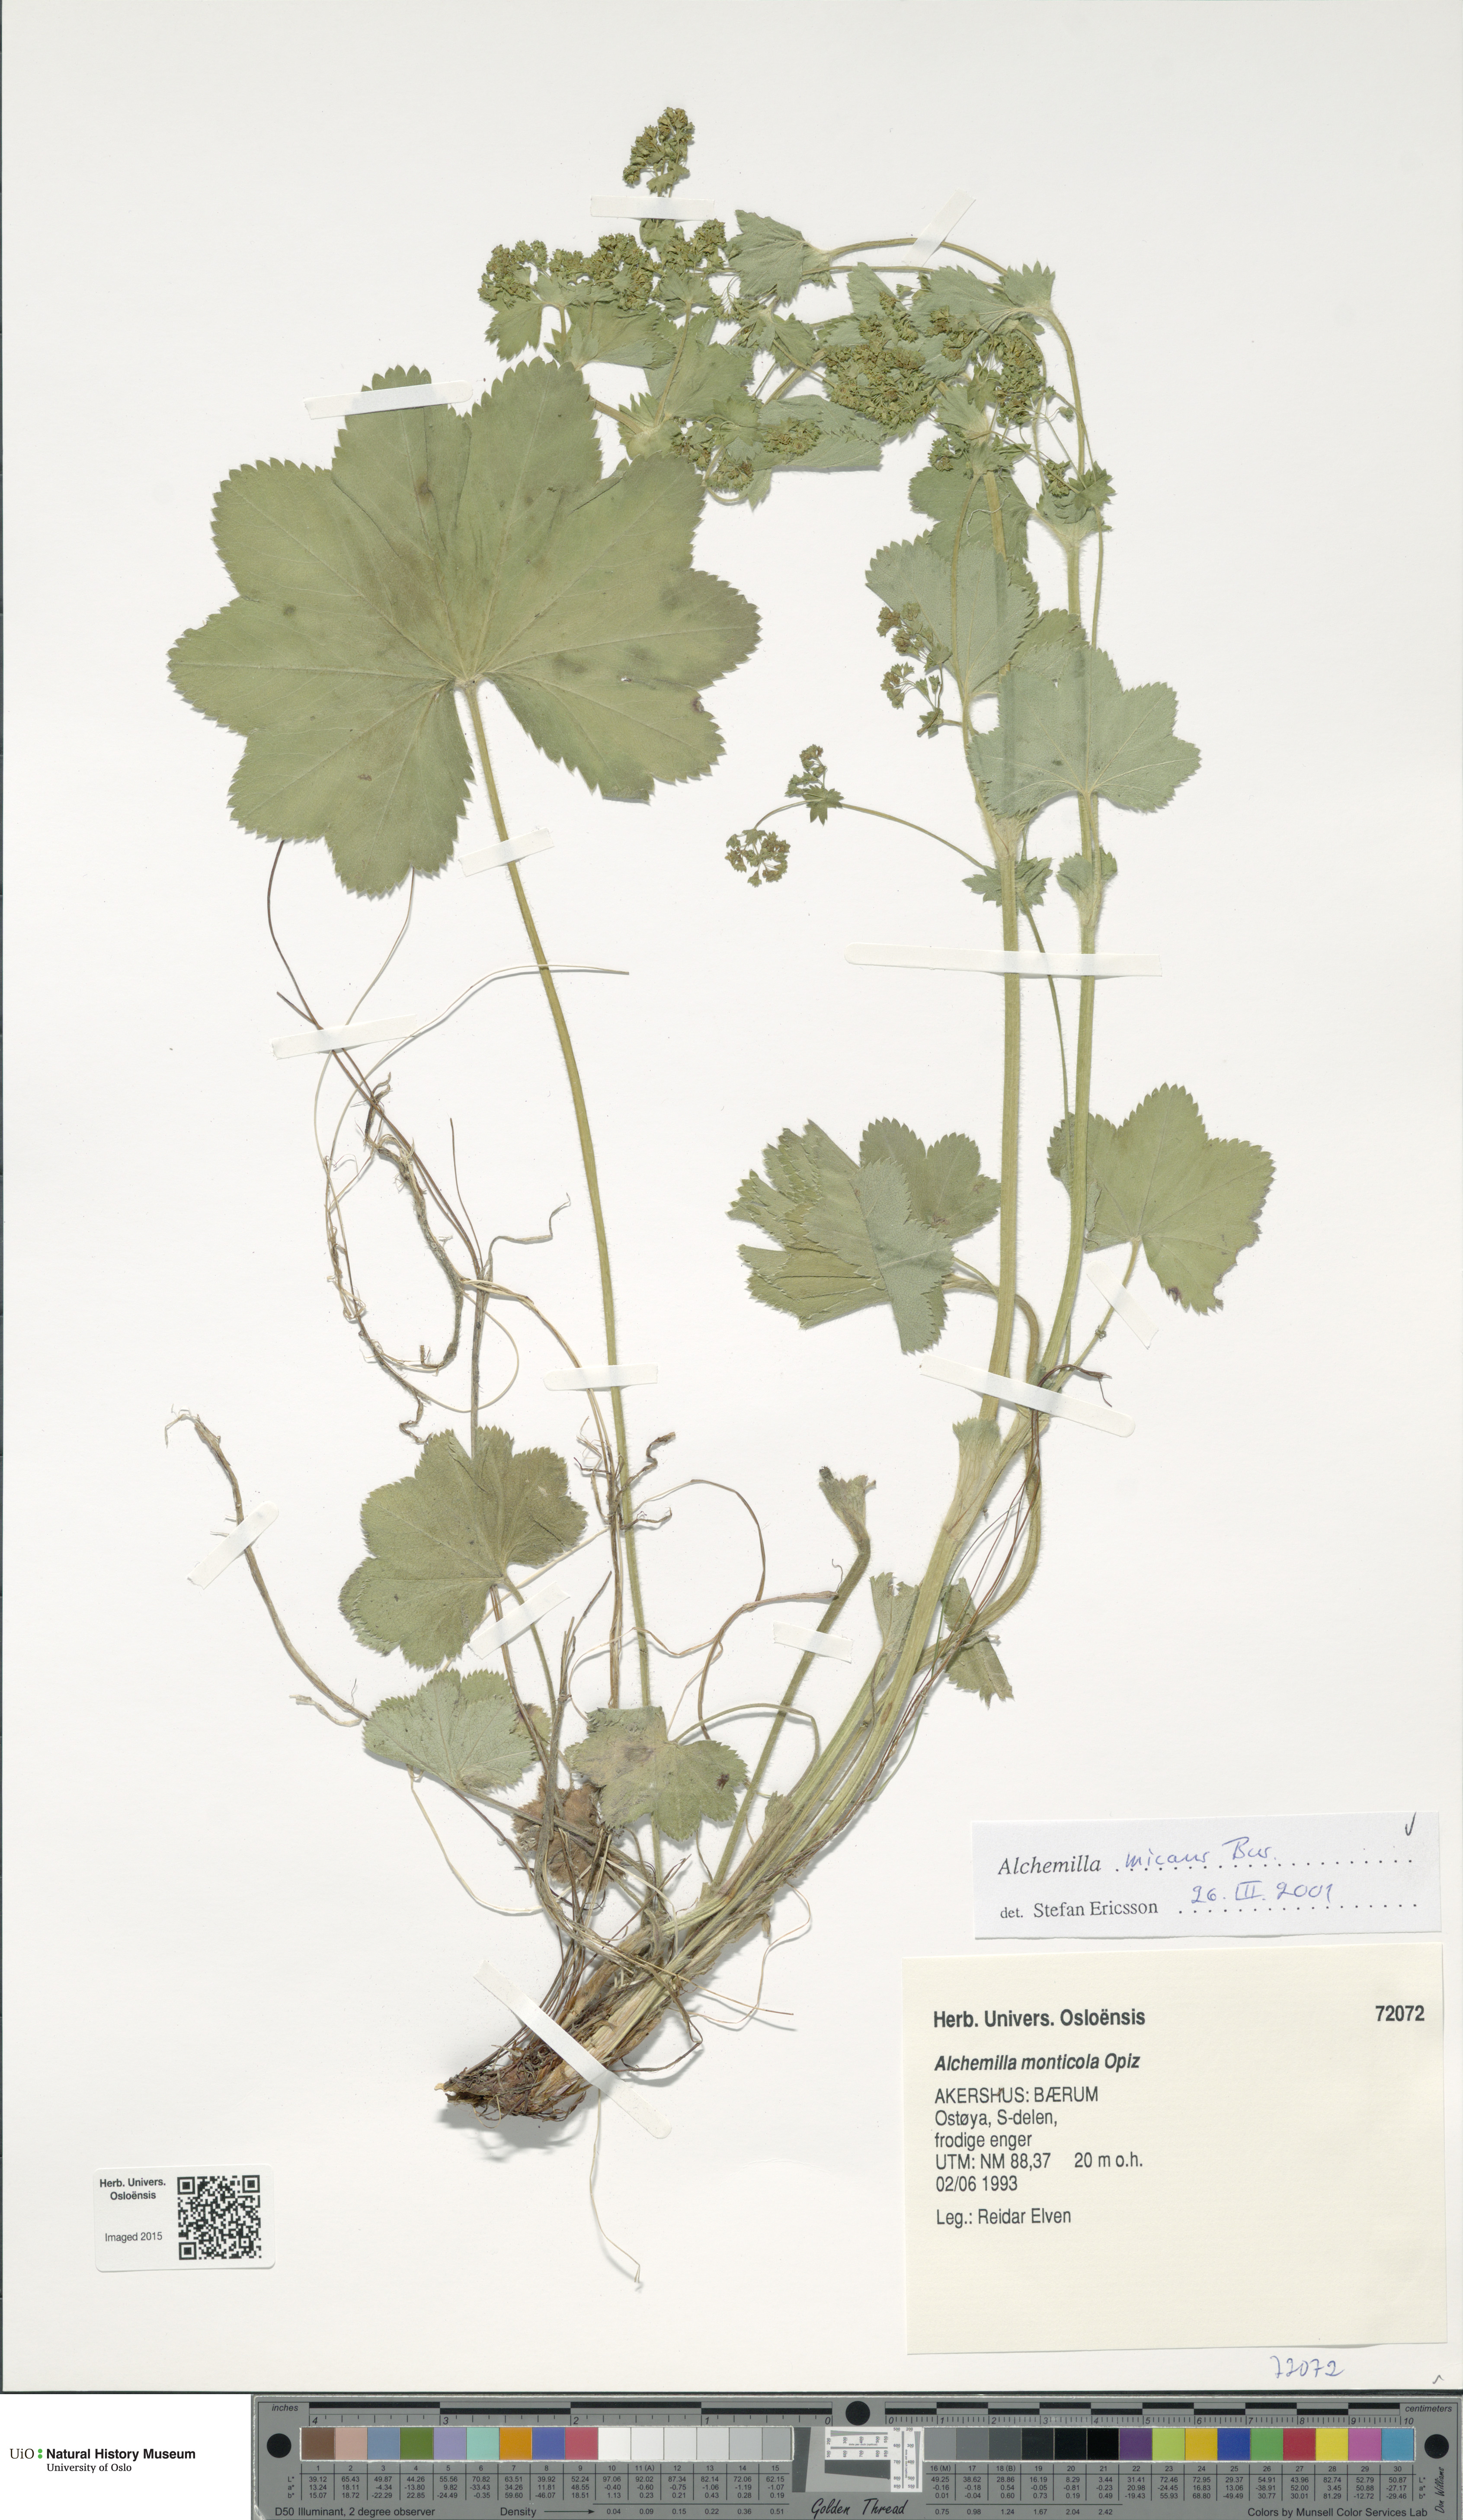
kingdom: Plantae
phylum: Tracheophyta
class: Magnoliopsida
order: Rosales
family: Rosaceae
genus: Alchemilla
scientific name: Alchemilla micans
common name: Gleaming lady's mantle
